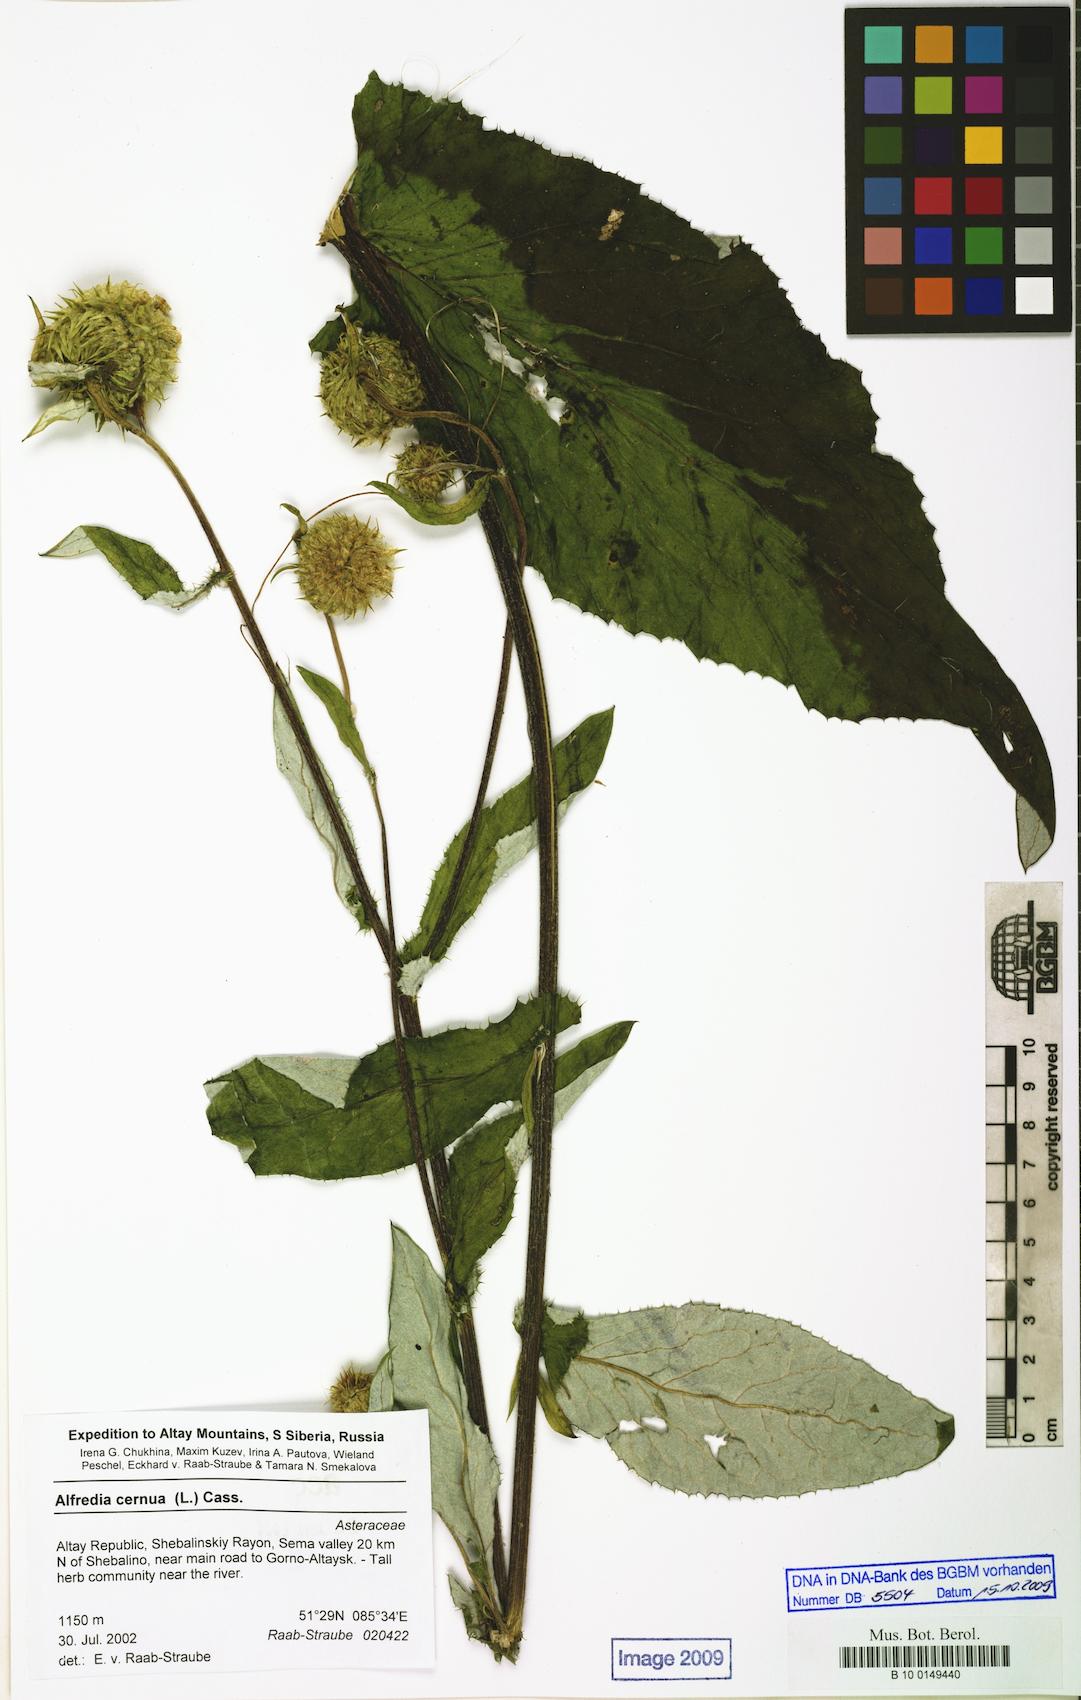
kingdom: Plantae
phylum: Tracheophyta
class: Magnoliopsida
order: Asterales
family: Asteraceae
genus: Alfredia
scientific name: Alfredia cernua
